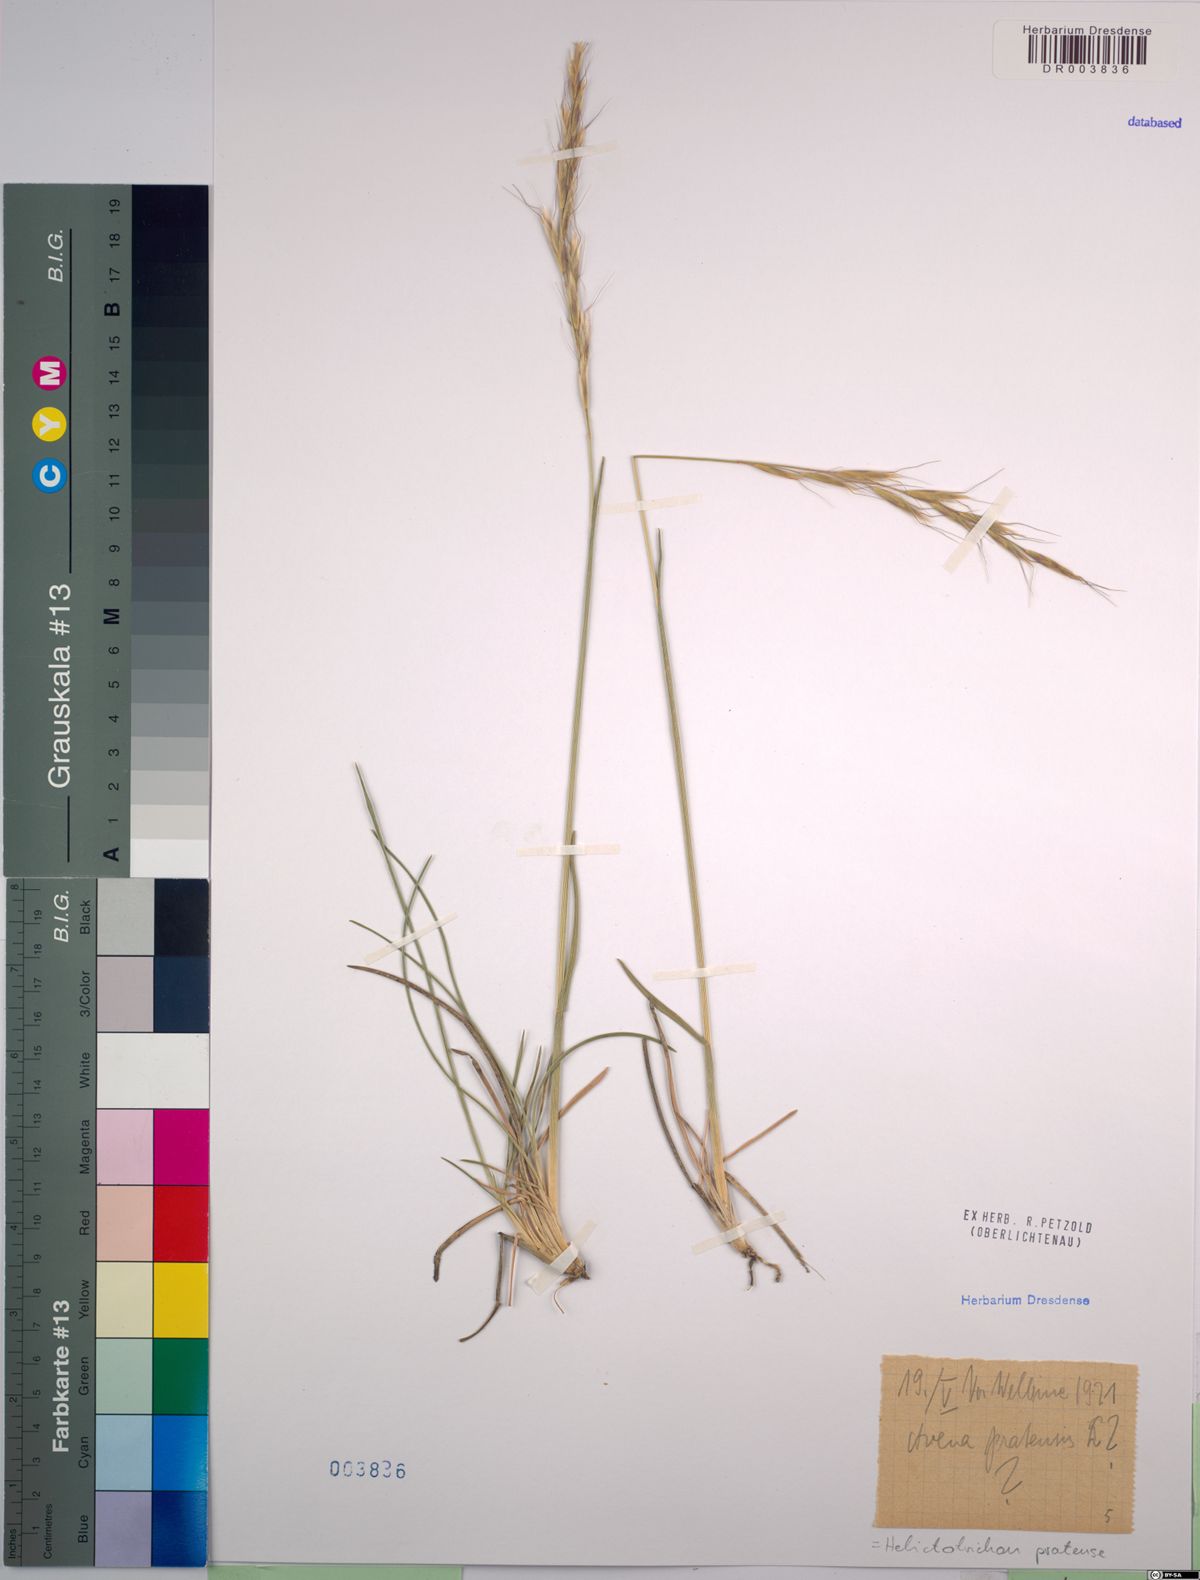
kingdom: Plantae
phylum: Tracheophyta
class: Liliopsida
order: Poales
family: Poaceae
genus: Helictochloa
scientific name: Helictochloa pratensis
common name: Meadow oat grass
